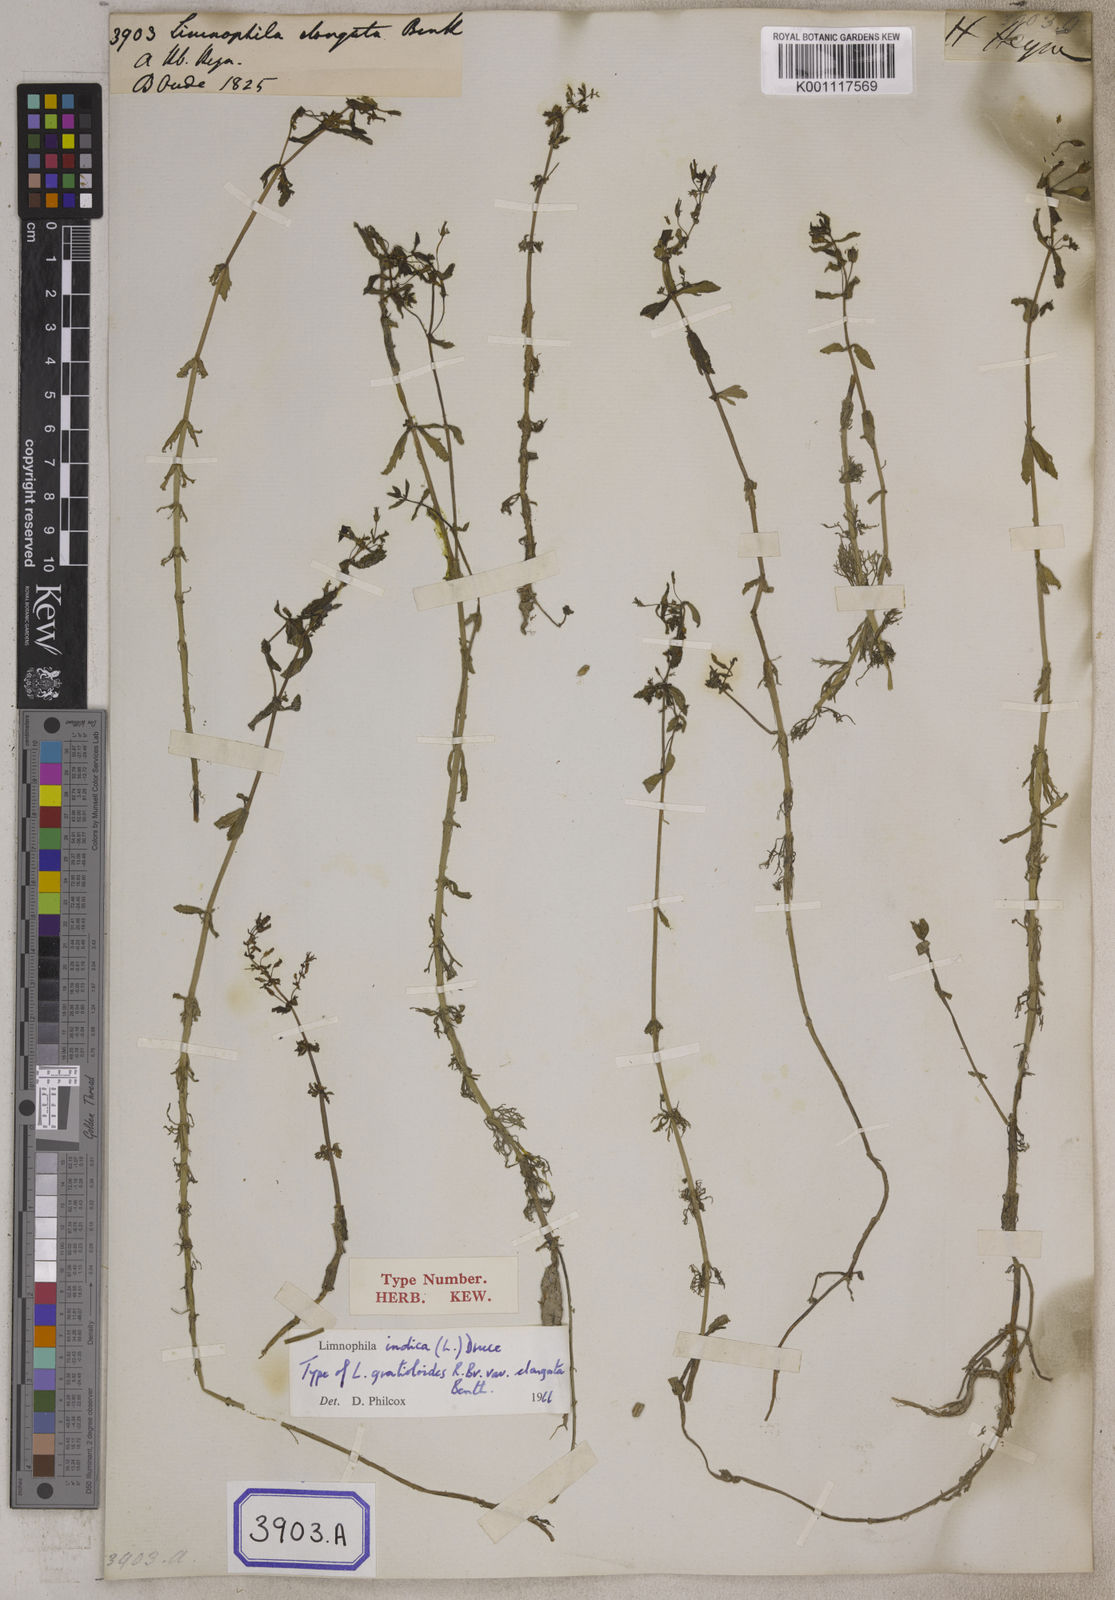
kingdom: Plantae
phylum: Tracheophyta
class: Magnoliopsida
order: Lamiales
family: Plantaginaceae
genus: Limnophila
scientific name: Limnophila indica
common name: Indian marshweed
